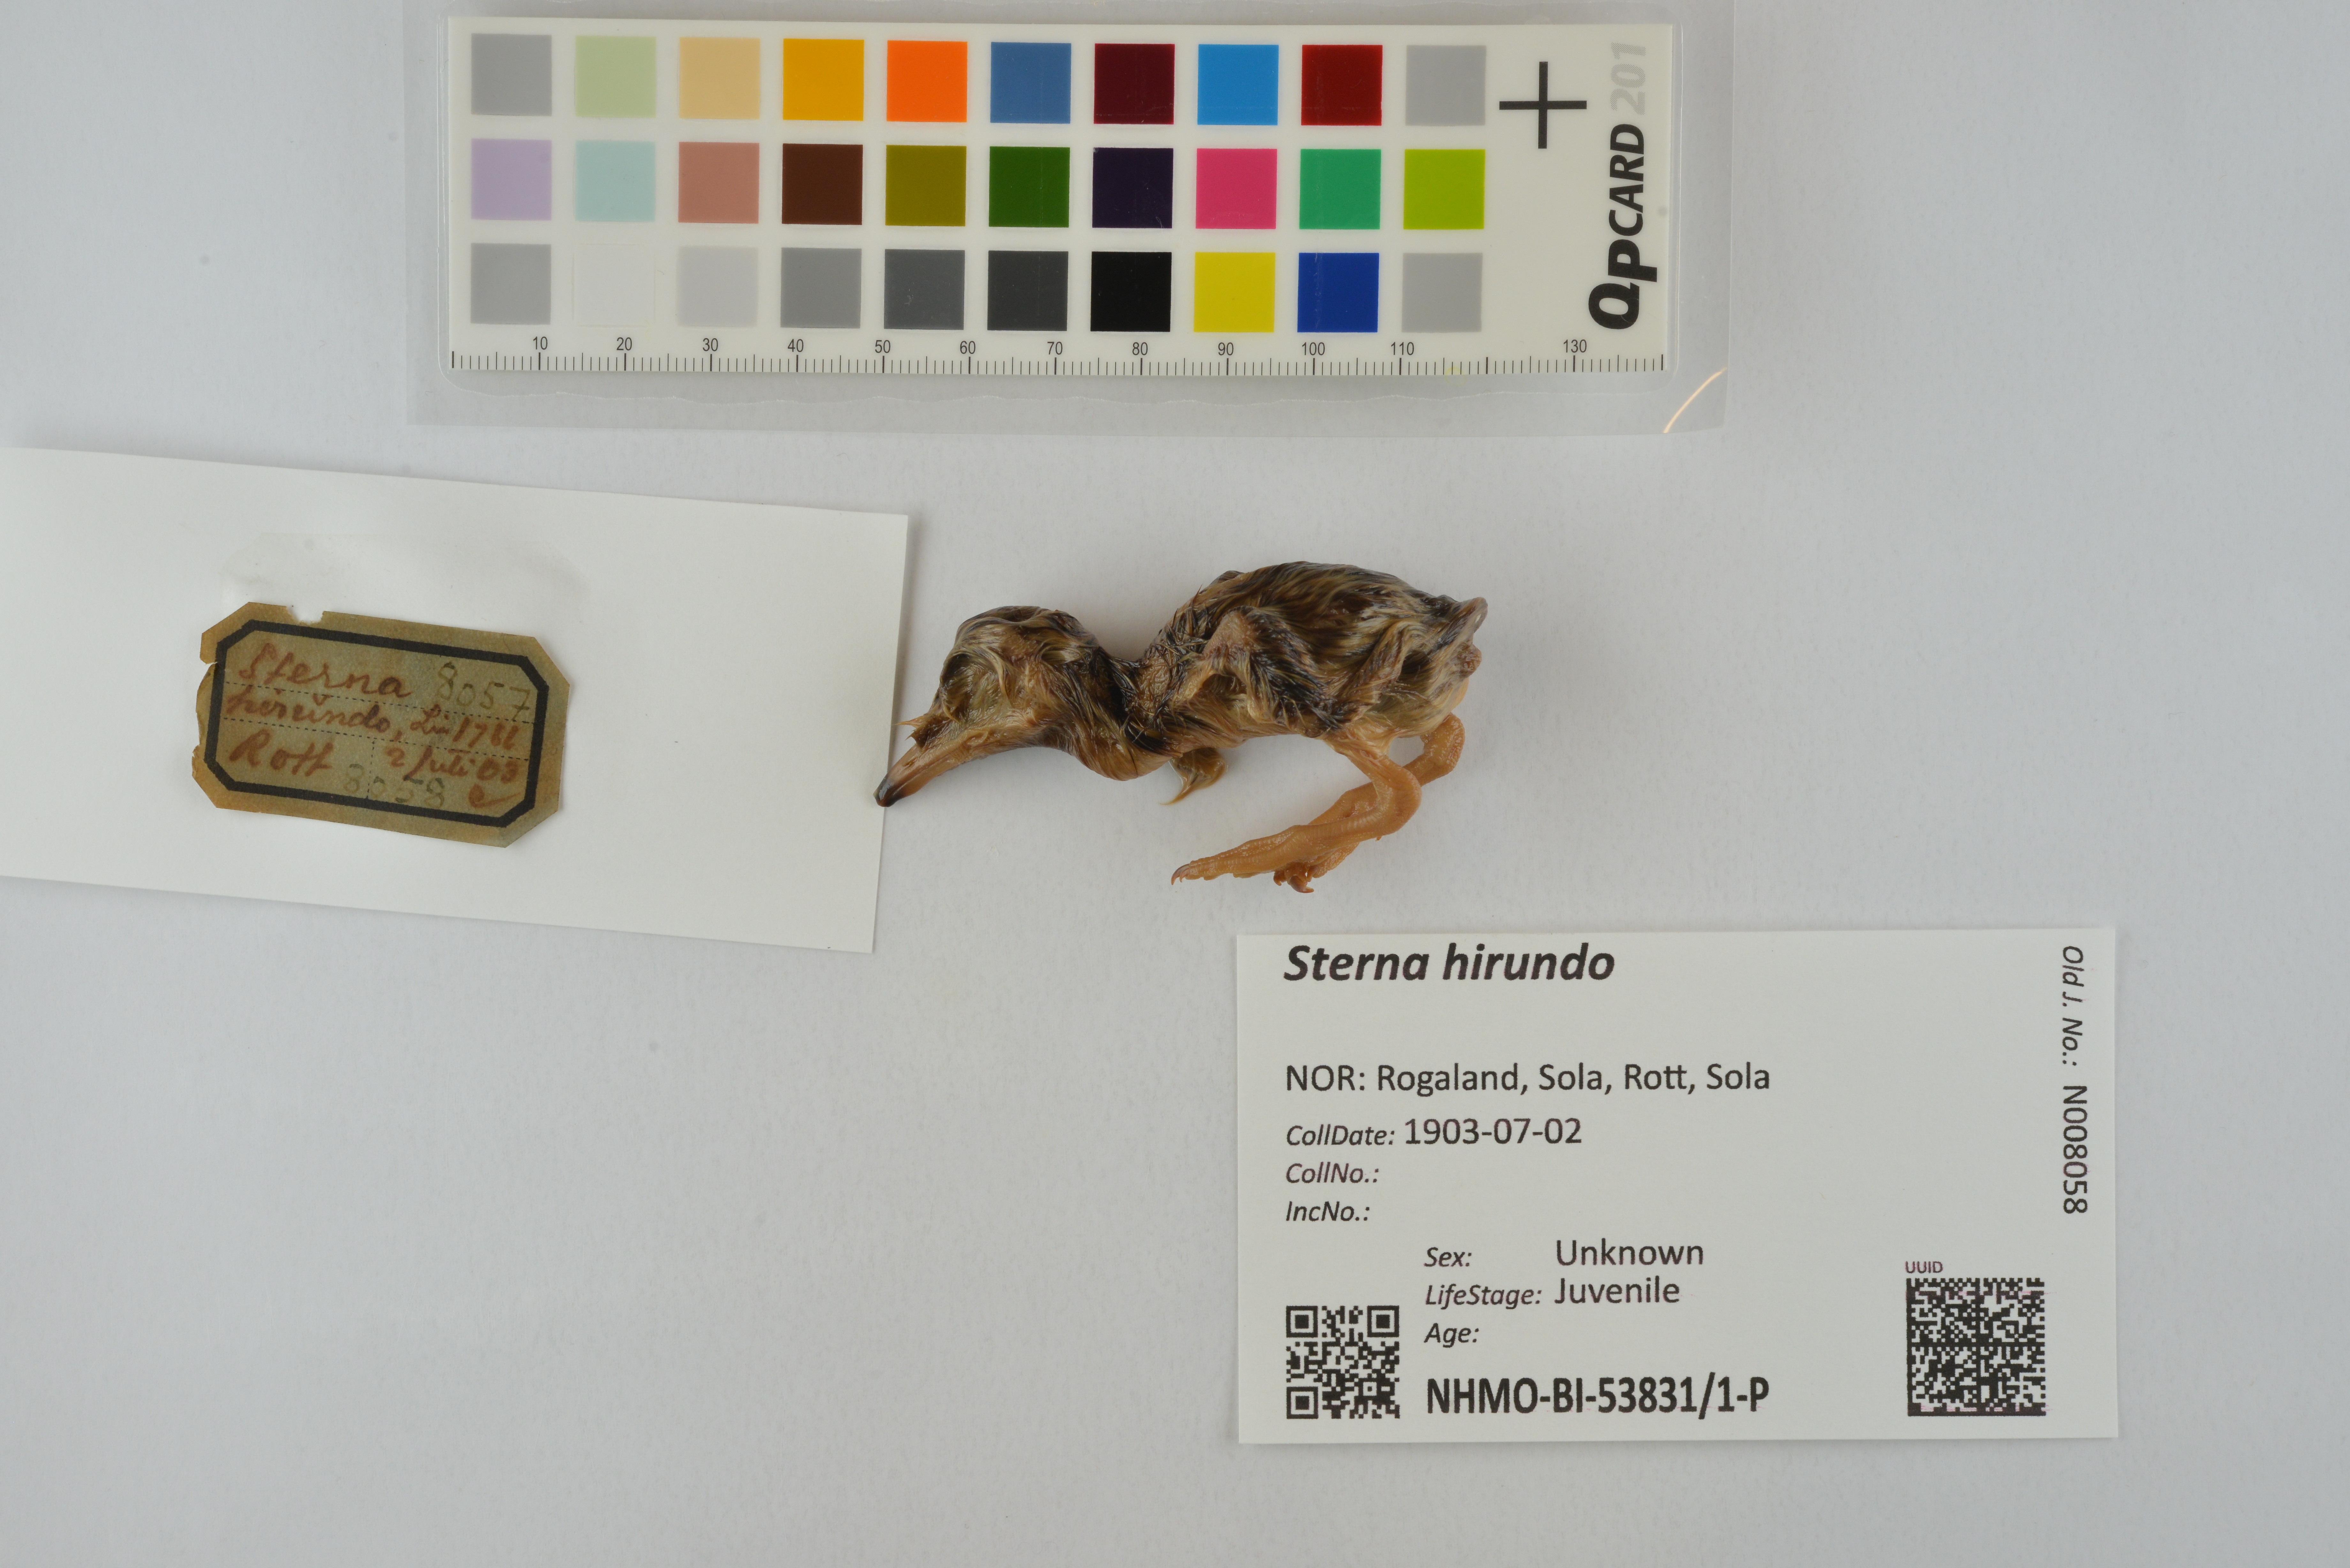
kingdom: Animalia
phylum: Chordata
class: Aves
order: Charadriiformes
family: Laridae
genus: Sterna
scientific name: Sterna hirundo
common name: Common tern
